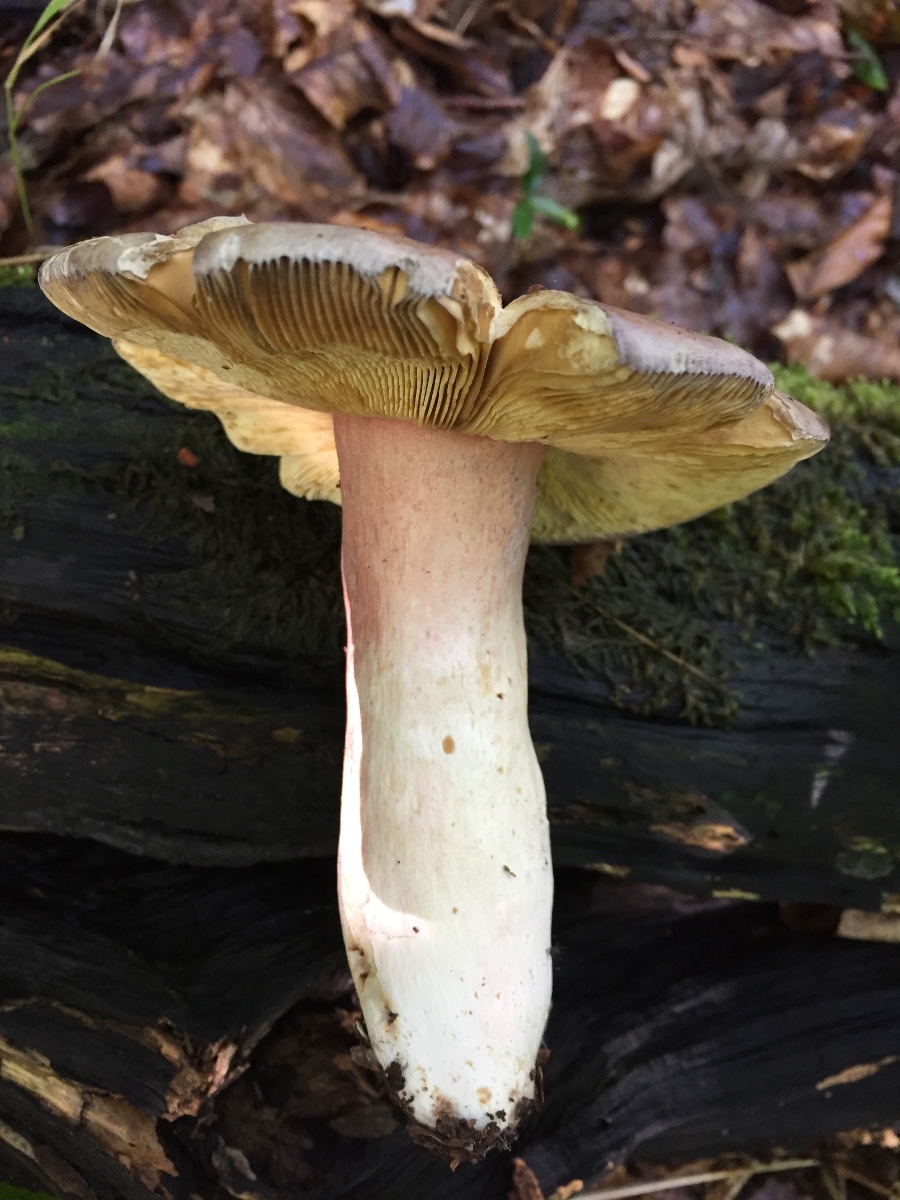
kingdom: Fungi
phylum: Basidiomycota
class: Agaricomycetes
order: Russulales
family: Russulaceae
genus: Russula
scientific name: Russula olivacea
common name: stor skørhat
